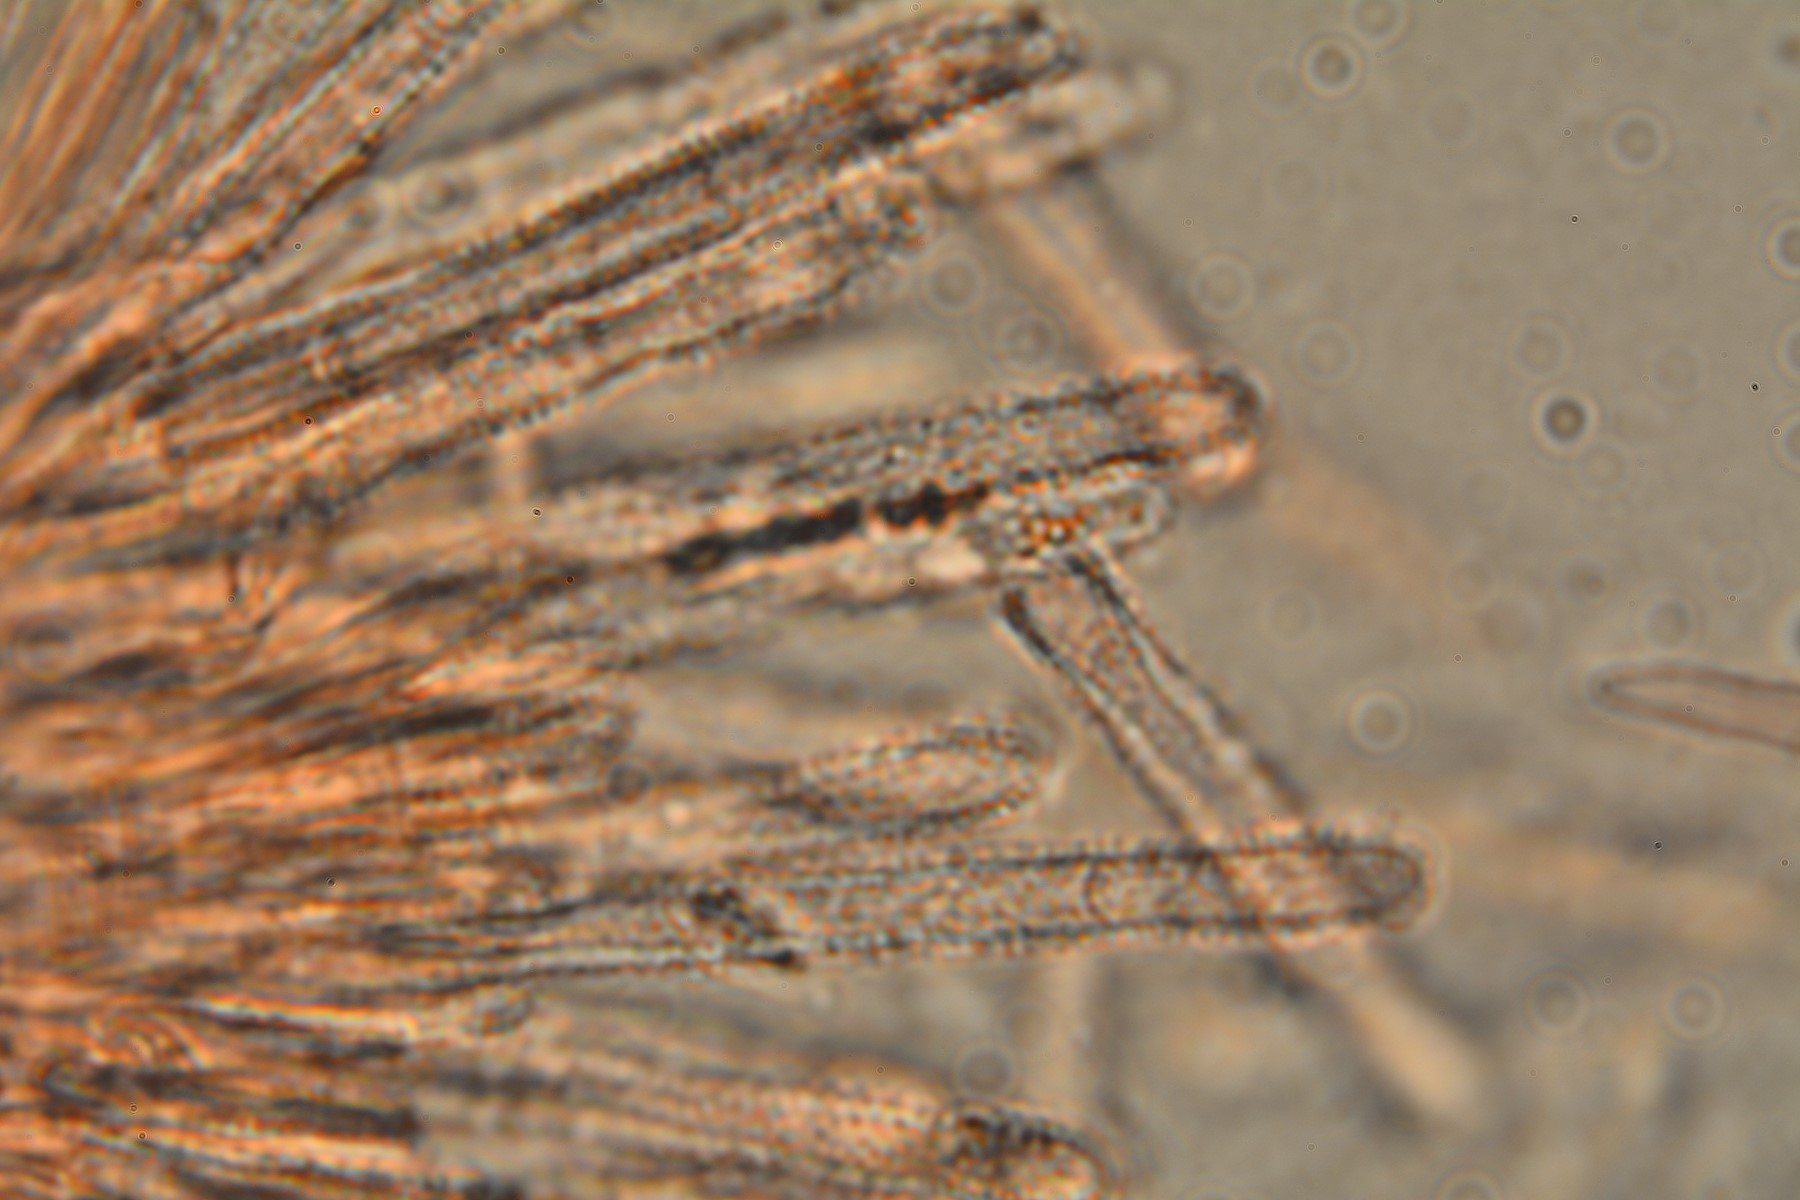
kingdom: Fungi
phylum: Ascomycota
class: Leotiomycetes
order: Helotiales
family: Lachnaceae
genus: Lachnum
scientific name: Lachnum impudicum
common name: vinter-frynseskive
